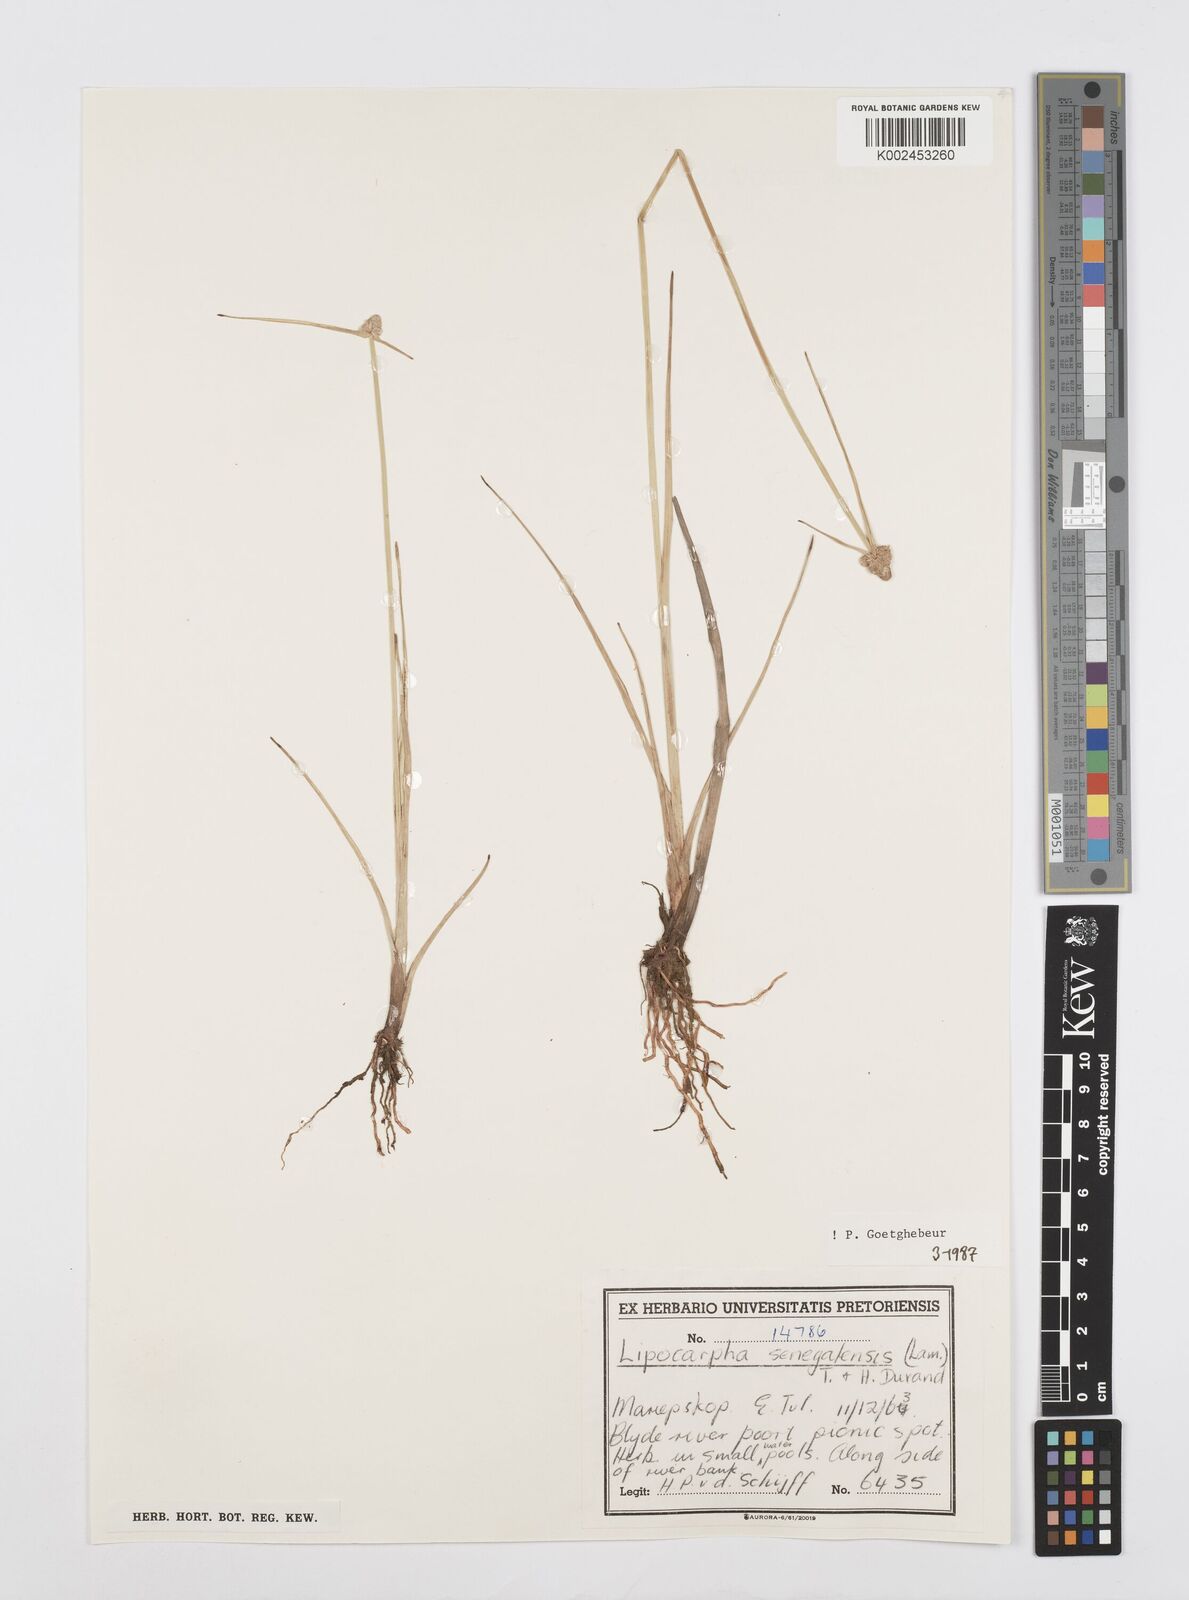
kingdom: Plantae
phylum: Tracheophyta
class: Liliopsida
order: Poales
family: Cyperaceae
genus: Cyperus
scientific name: Cyperus albescens
